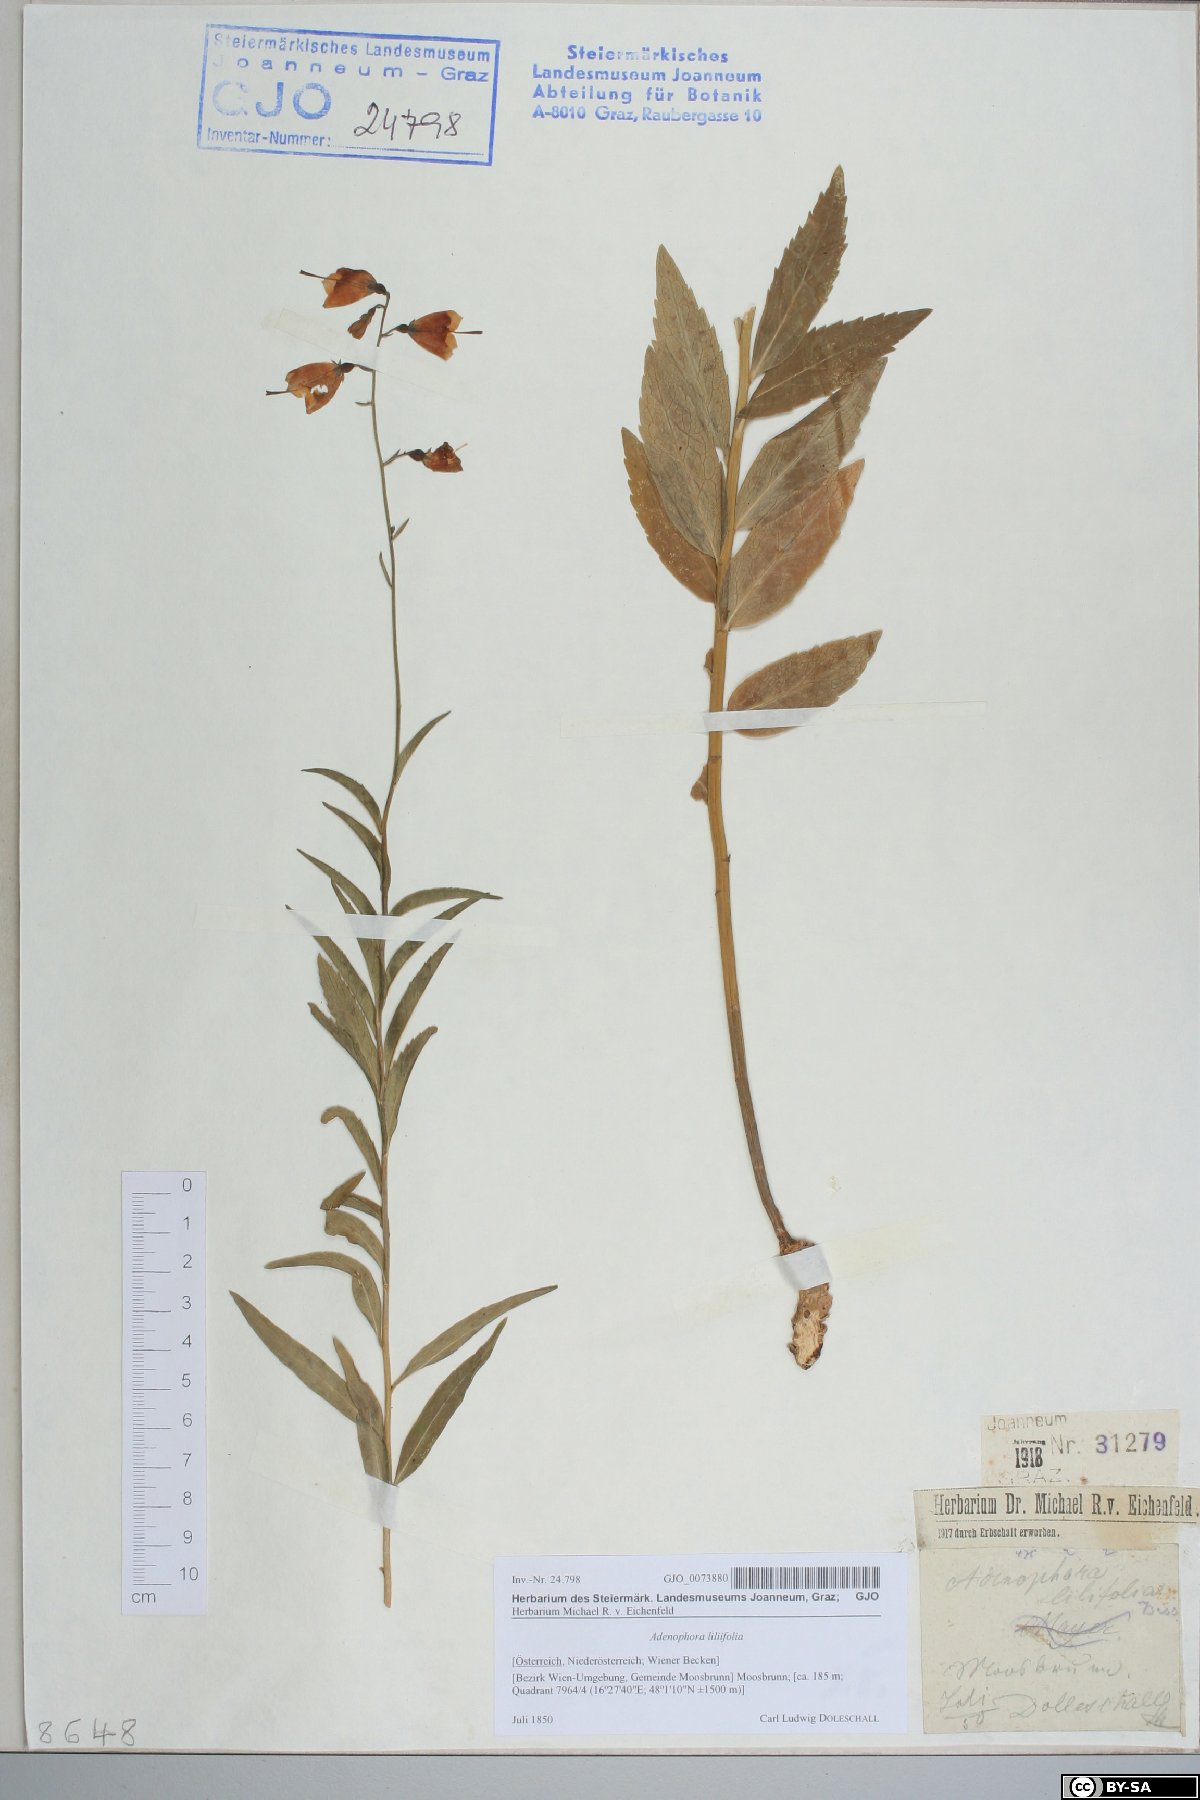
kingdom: Plantae
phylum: Tracheophyta
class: Magnoliopsida
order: Asterales
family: Campanulaceae
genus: Adenophora
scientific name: Adenophora liliifolia
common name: Lilyleaf ladybells
